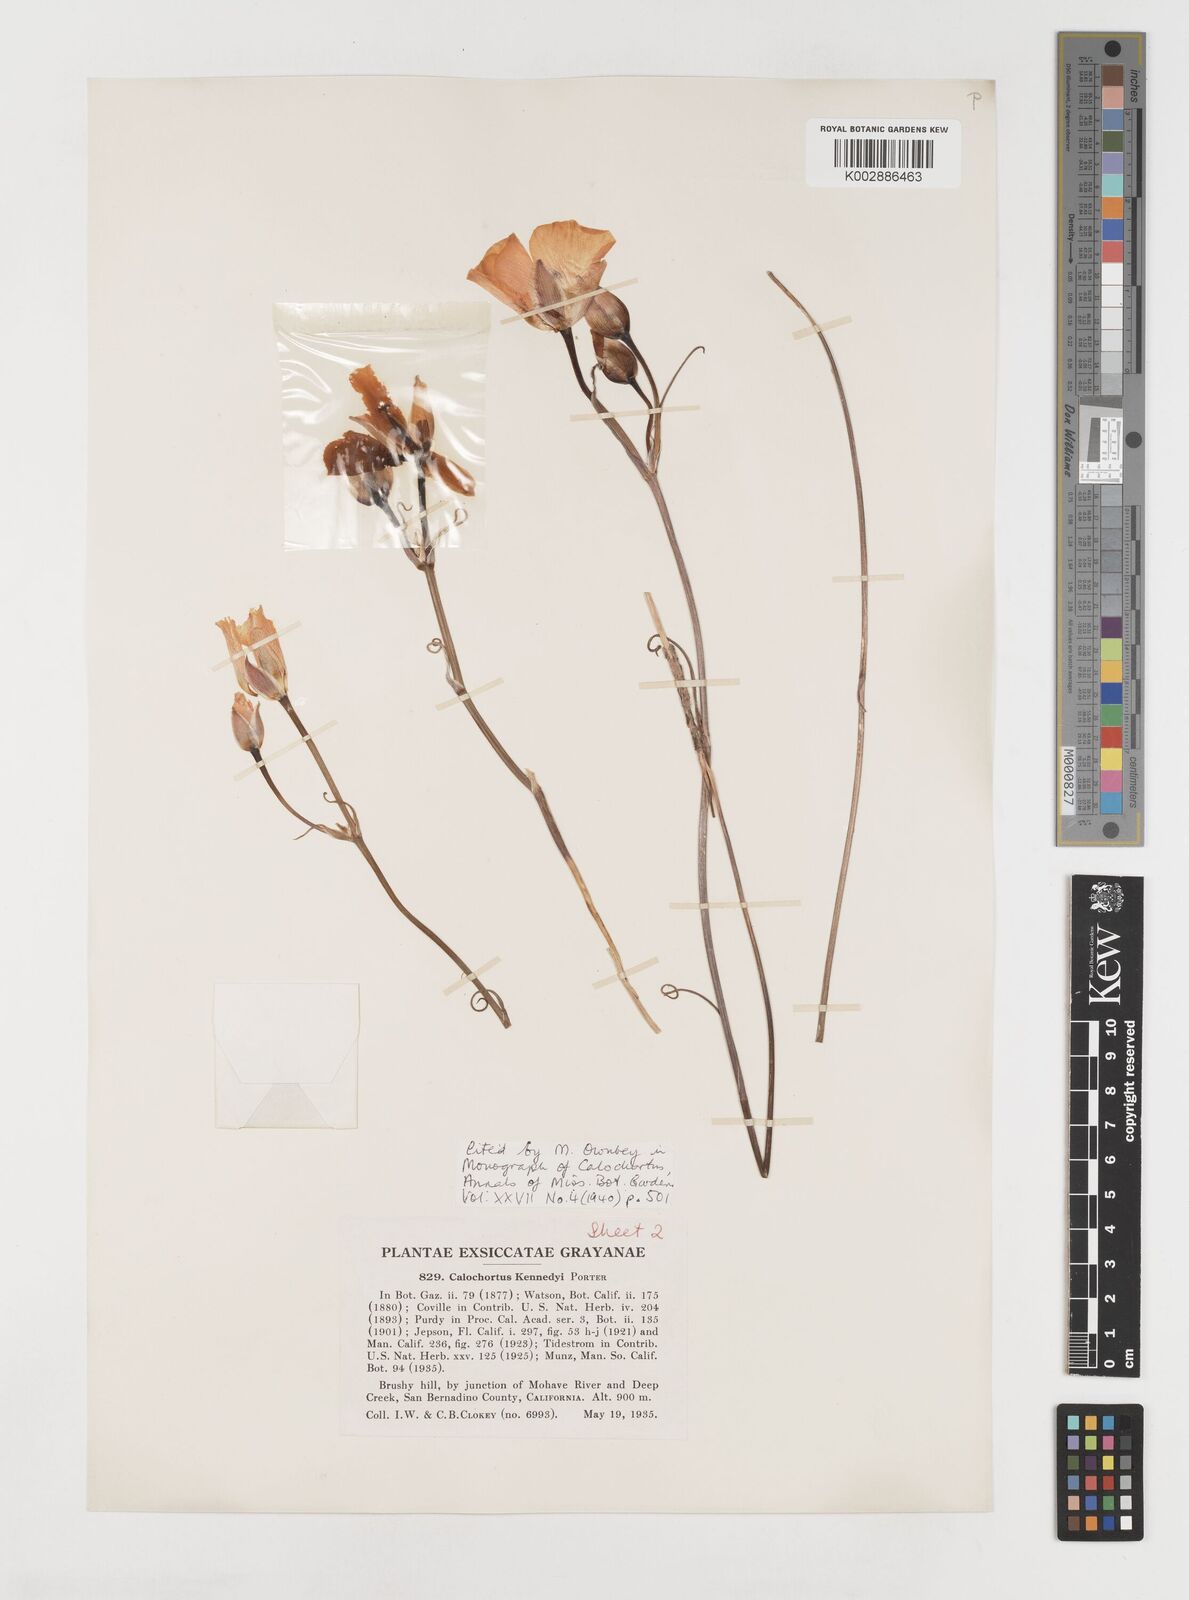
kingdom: Plantae
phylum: Tracheophyta
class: Liliopsida
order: Liliales
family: Liliaceae
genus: Calochortus
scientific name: Calochortus kennedyi
